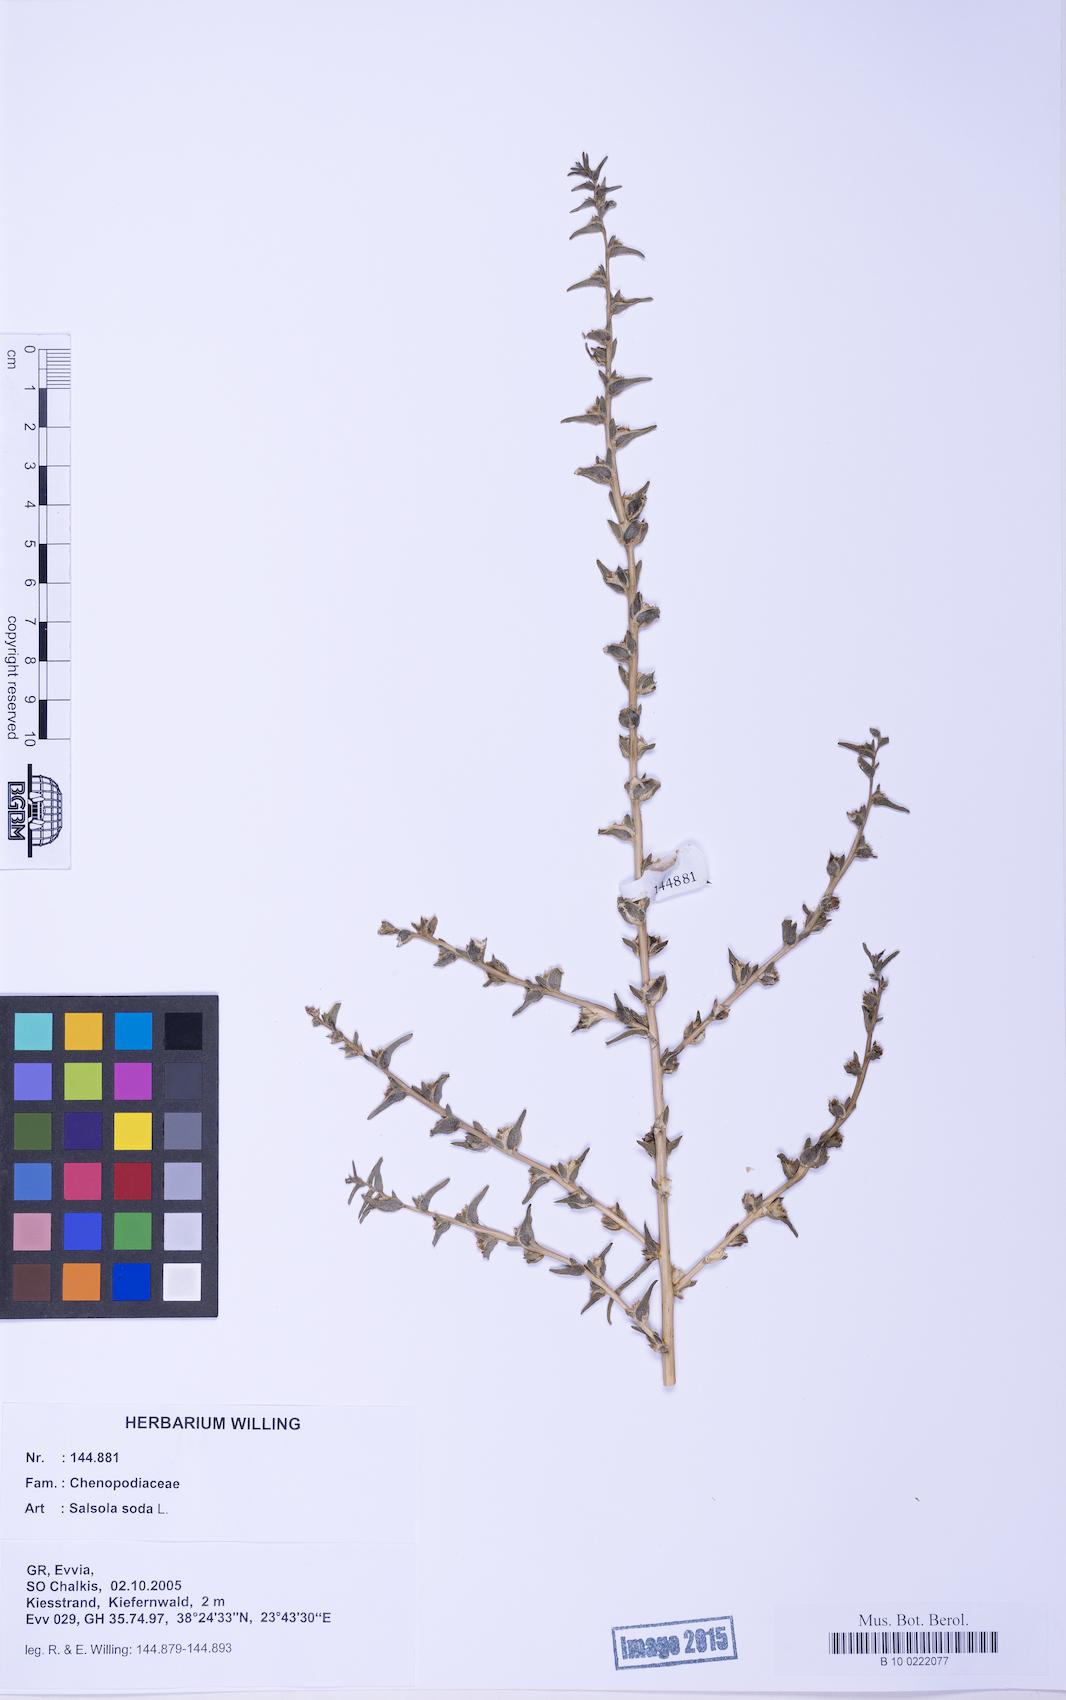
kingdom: Plantae
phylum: Tracheophyta
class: Magnoliopsida
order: Caryophyllales
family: Amaranthaceae
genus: Soda
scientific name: Soda inermis
